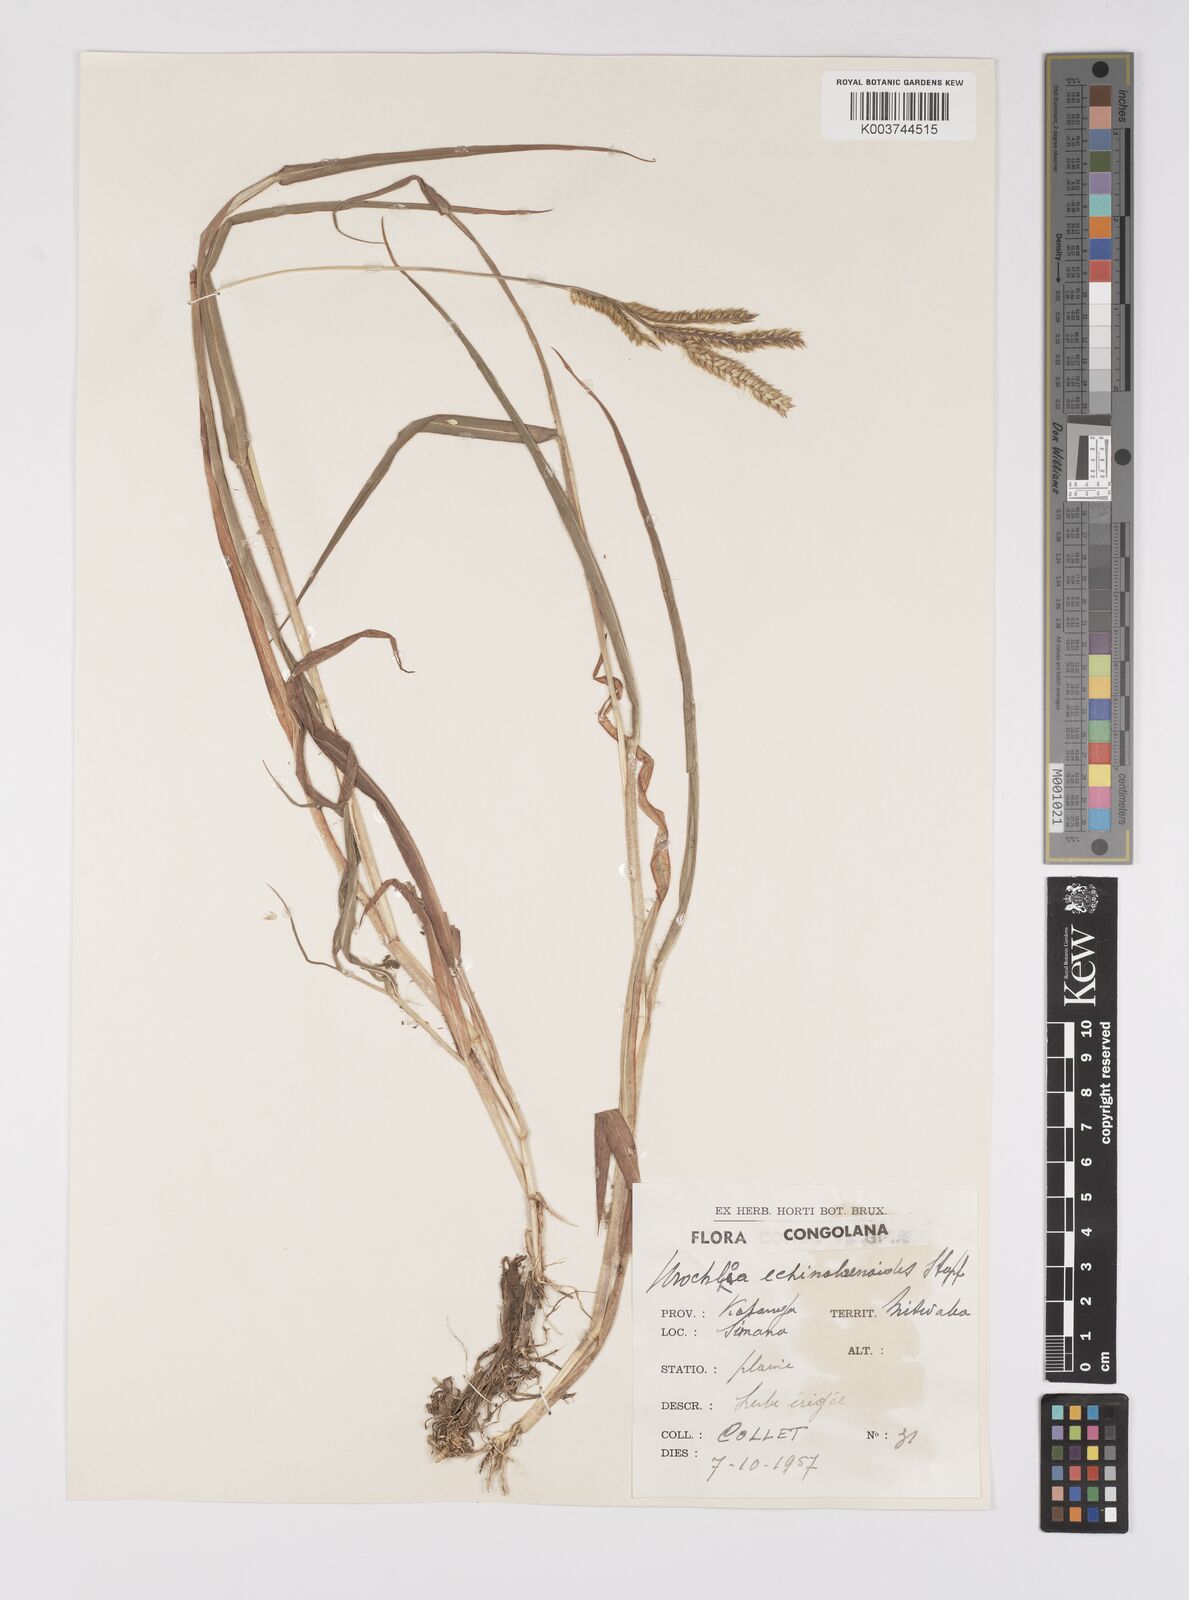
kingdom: Plantae
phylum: Tracheophyta
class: Liliopsida
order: Poales
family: Poaceae
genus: Urochloa
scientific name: Urochloa echinolaenoides
